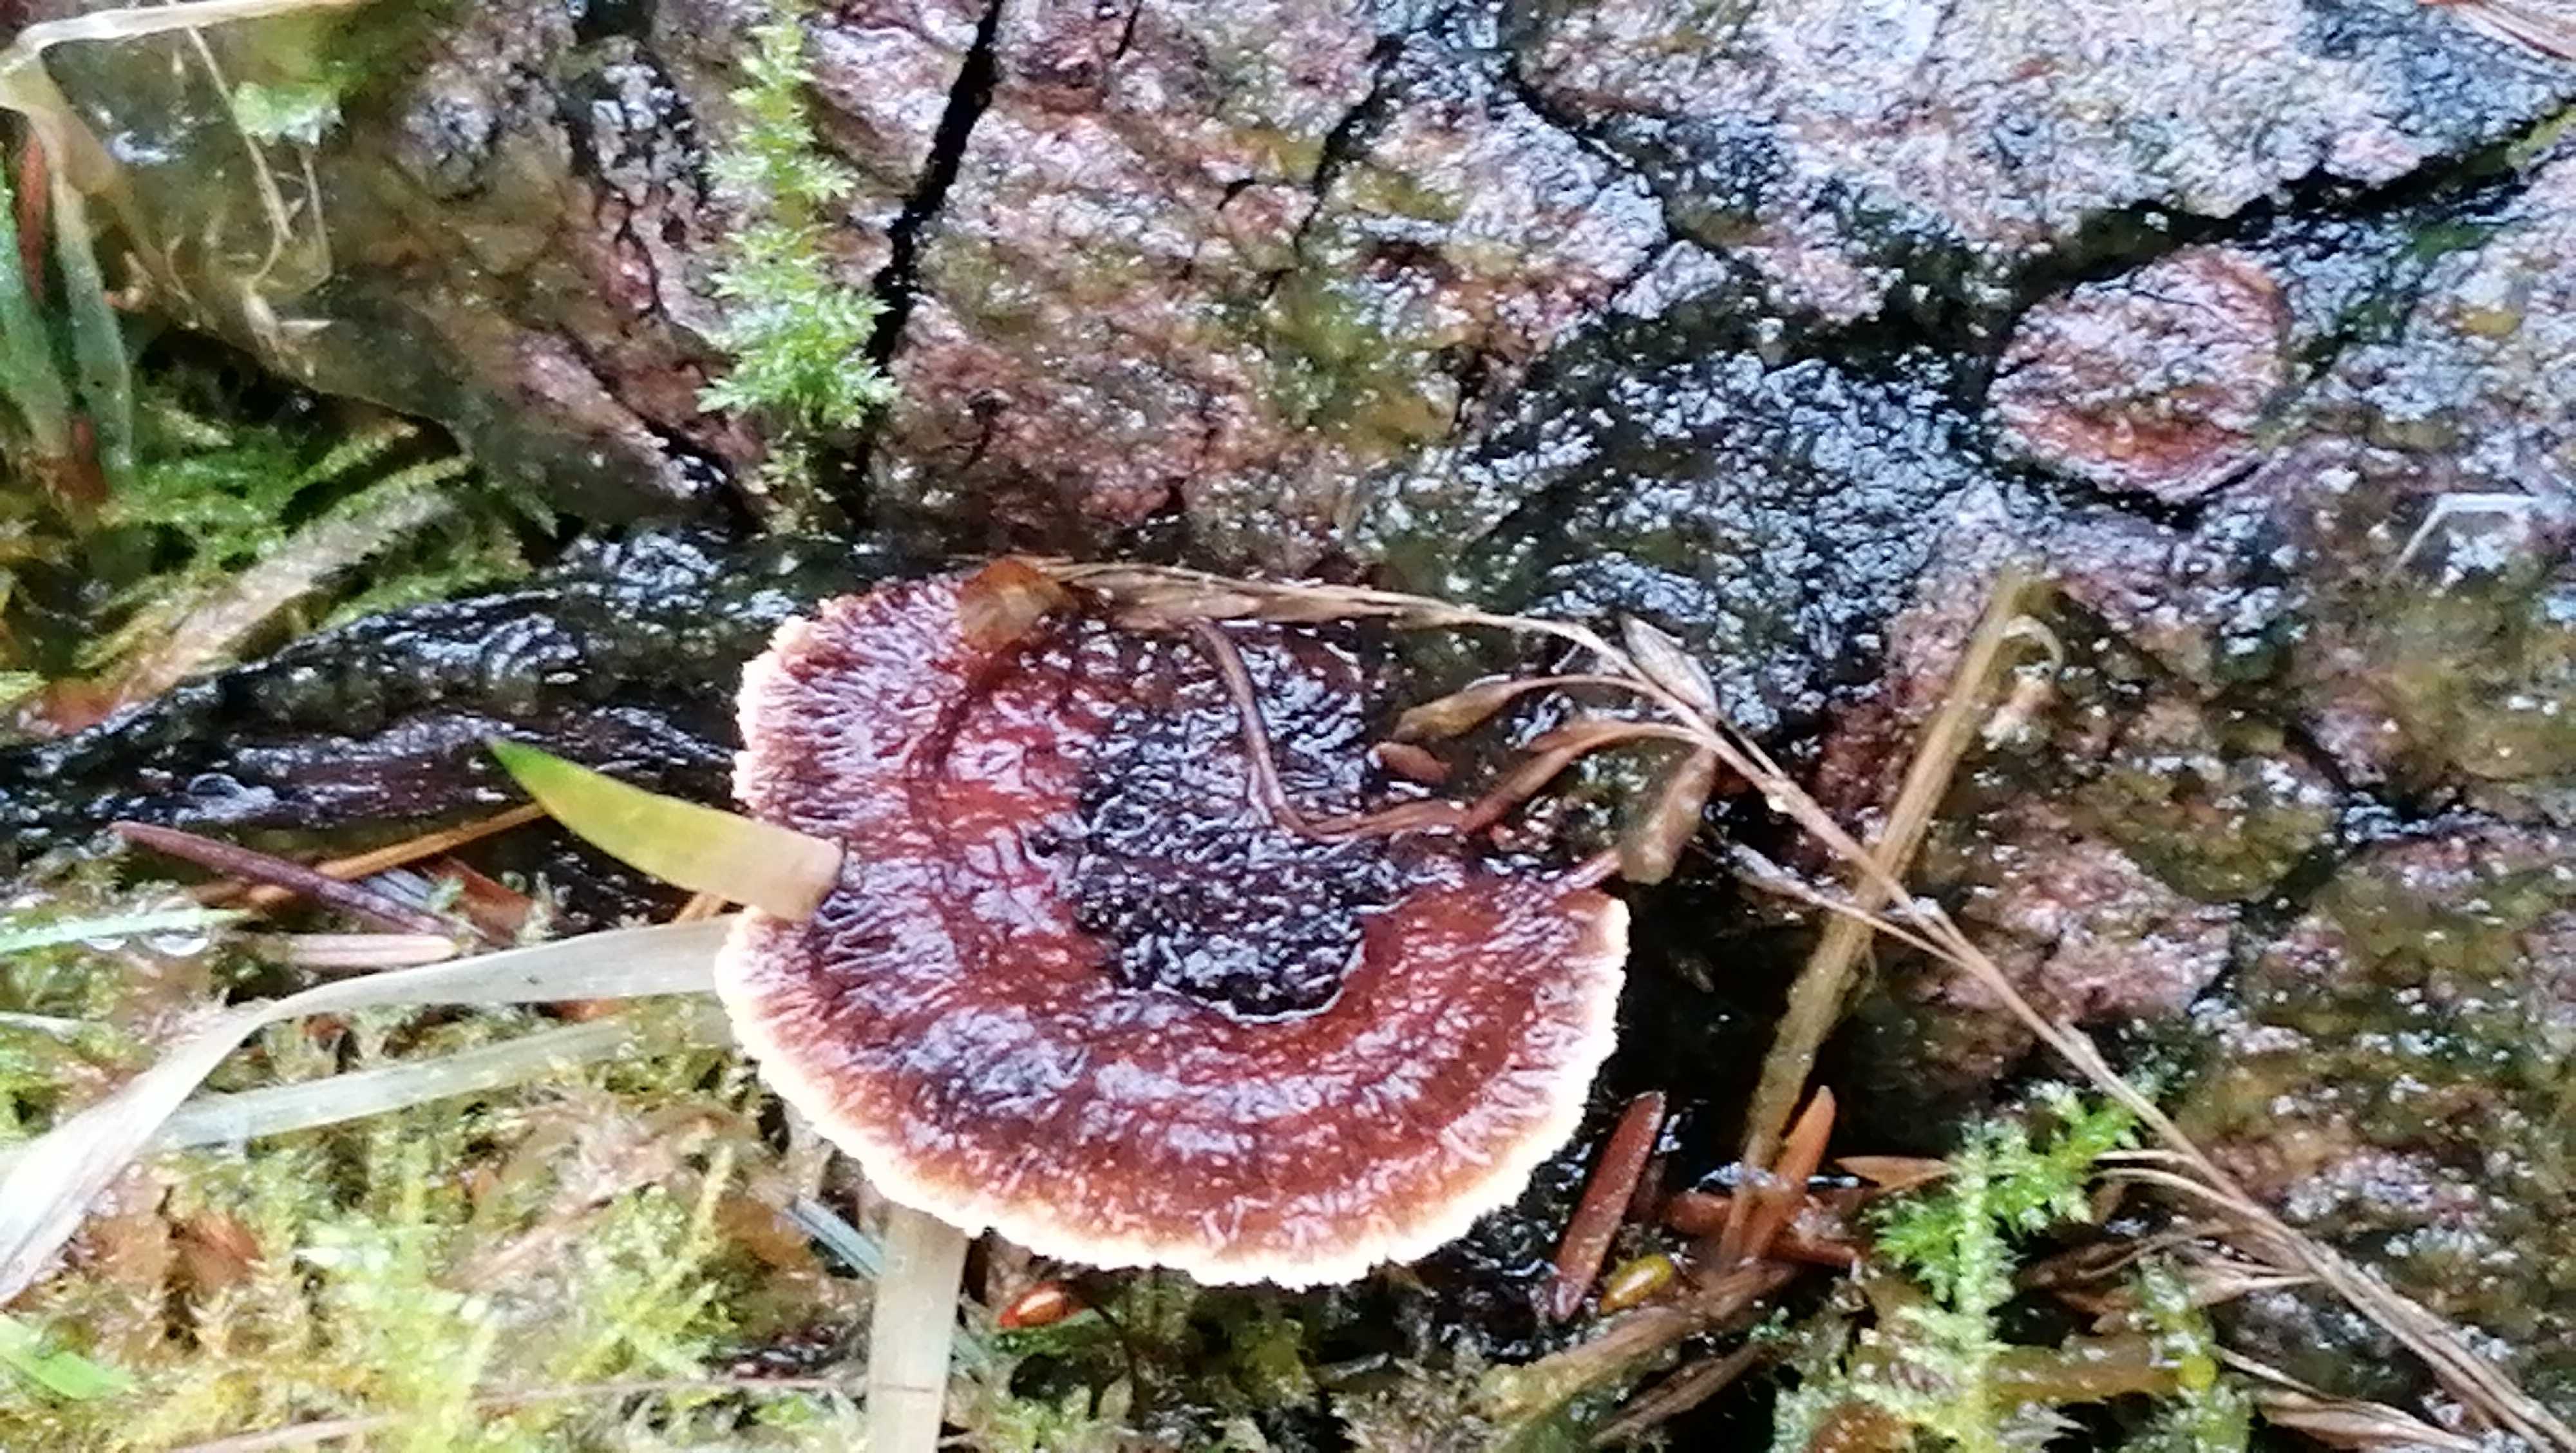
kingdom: Fungi
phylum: Basidiomycota
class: Agaricomycetes
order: Polyporales
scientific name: Polyporales
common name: poresvampordenen
